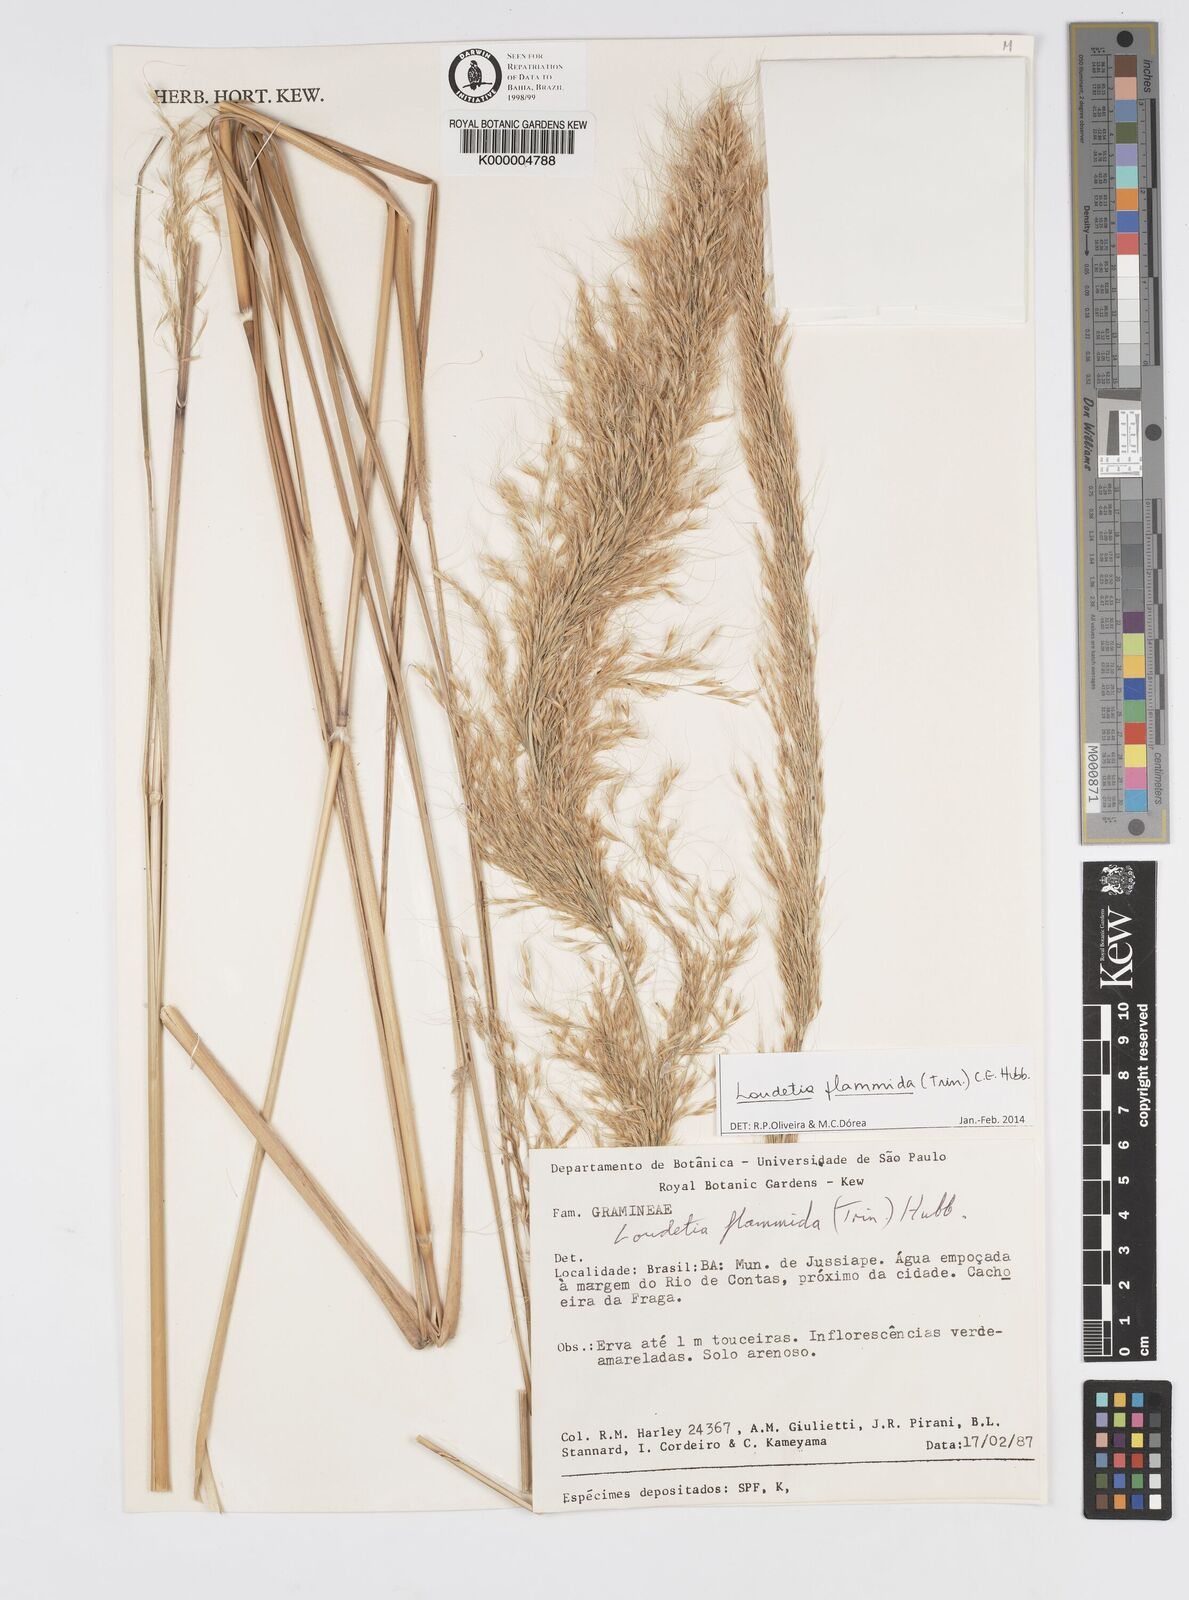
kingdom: Plantae
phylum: Tracheophyta
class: Liliopsida
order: Poales
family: Poaceae
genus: Loudetia
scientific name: Loudetia flammida
